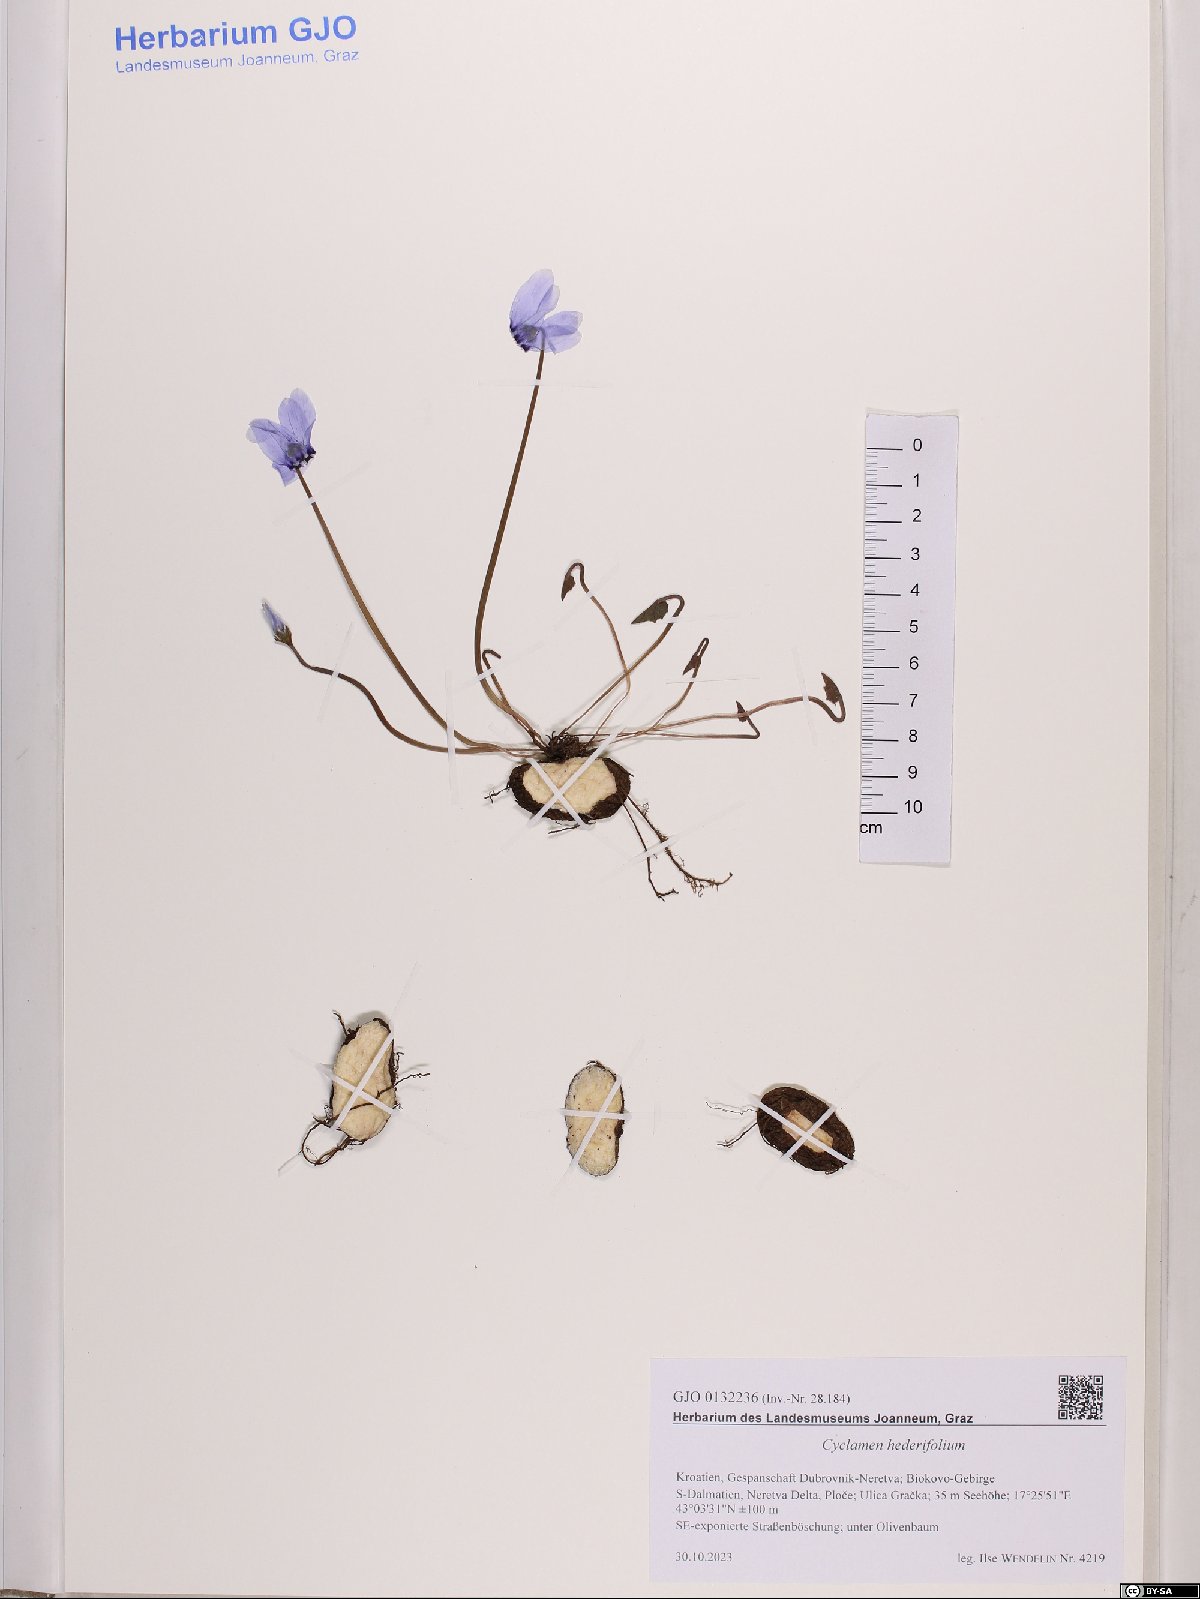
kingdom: Plantae
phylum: Tracheophyta
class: Magnoliopsida
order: Ericales
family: Primulaceae
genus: Cyclamen
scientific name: Cyclamen hederifolium
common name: Sowbread
